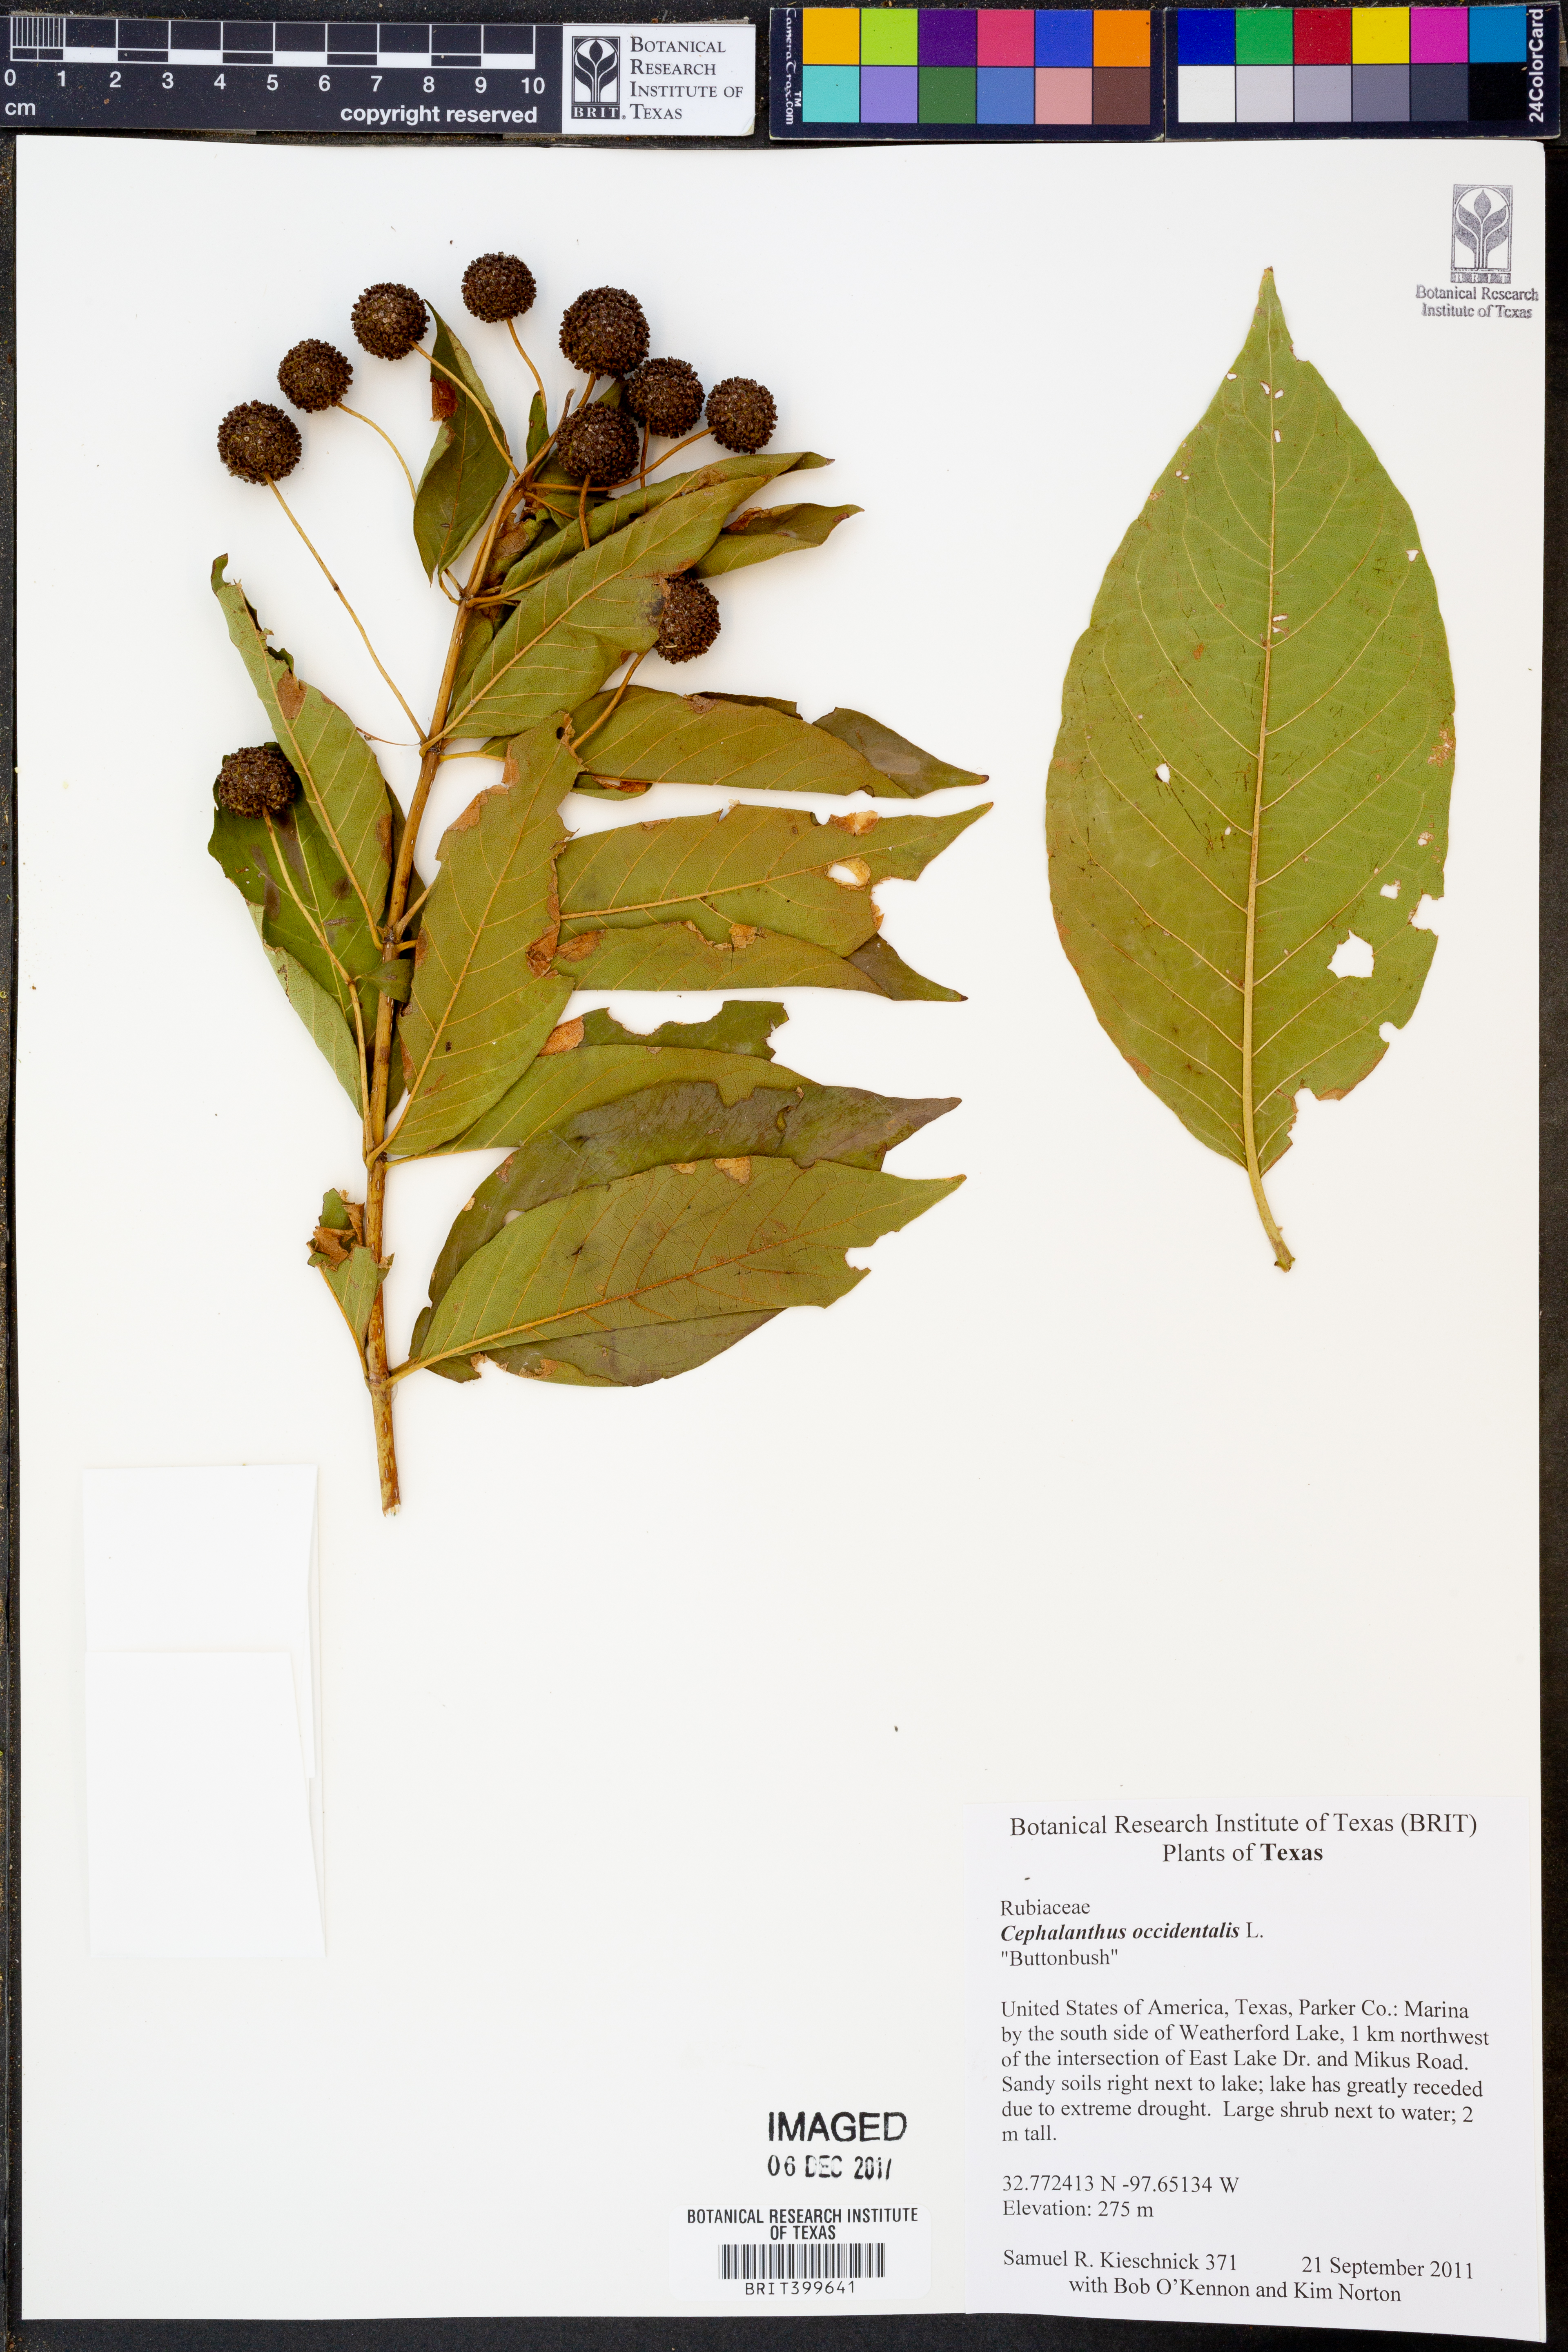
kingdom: Plantae
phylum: Tracheophyta
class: Magnoliopsida
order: Gentianales
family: Rubiaceae
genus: Cephalanthus
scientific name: Cephalanthus occidentalis
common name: Button-willow
